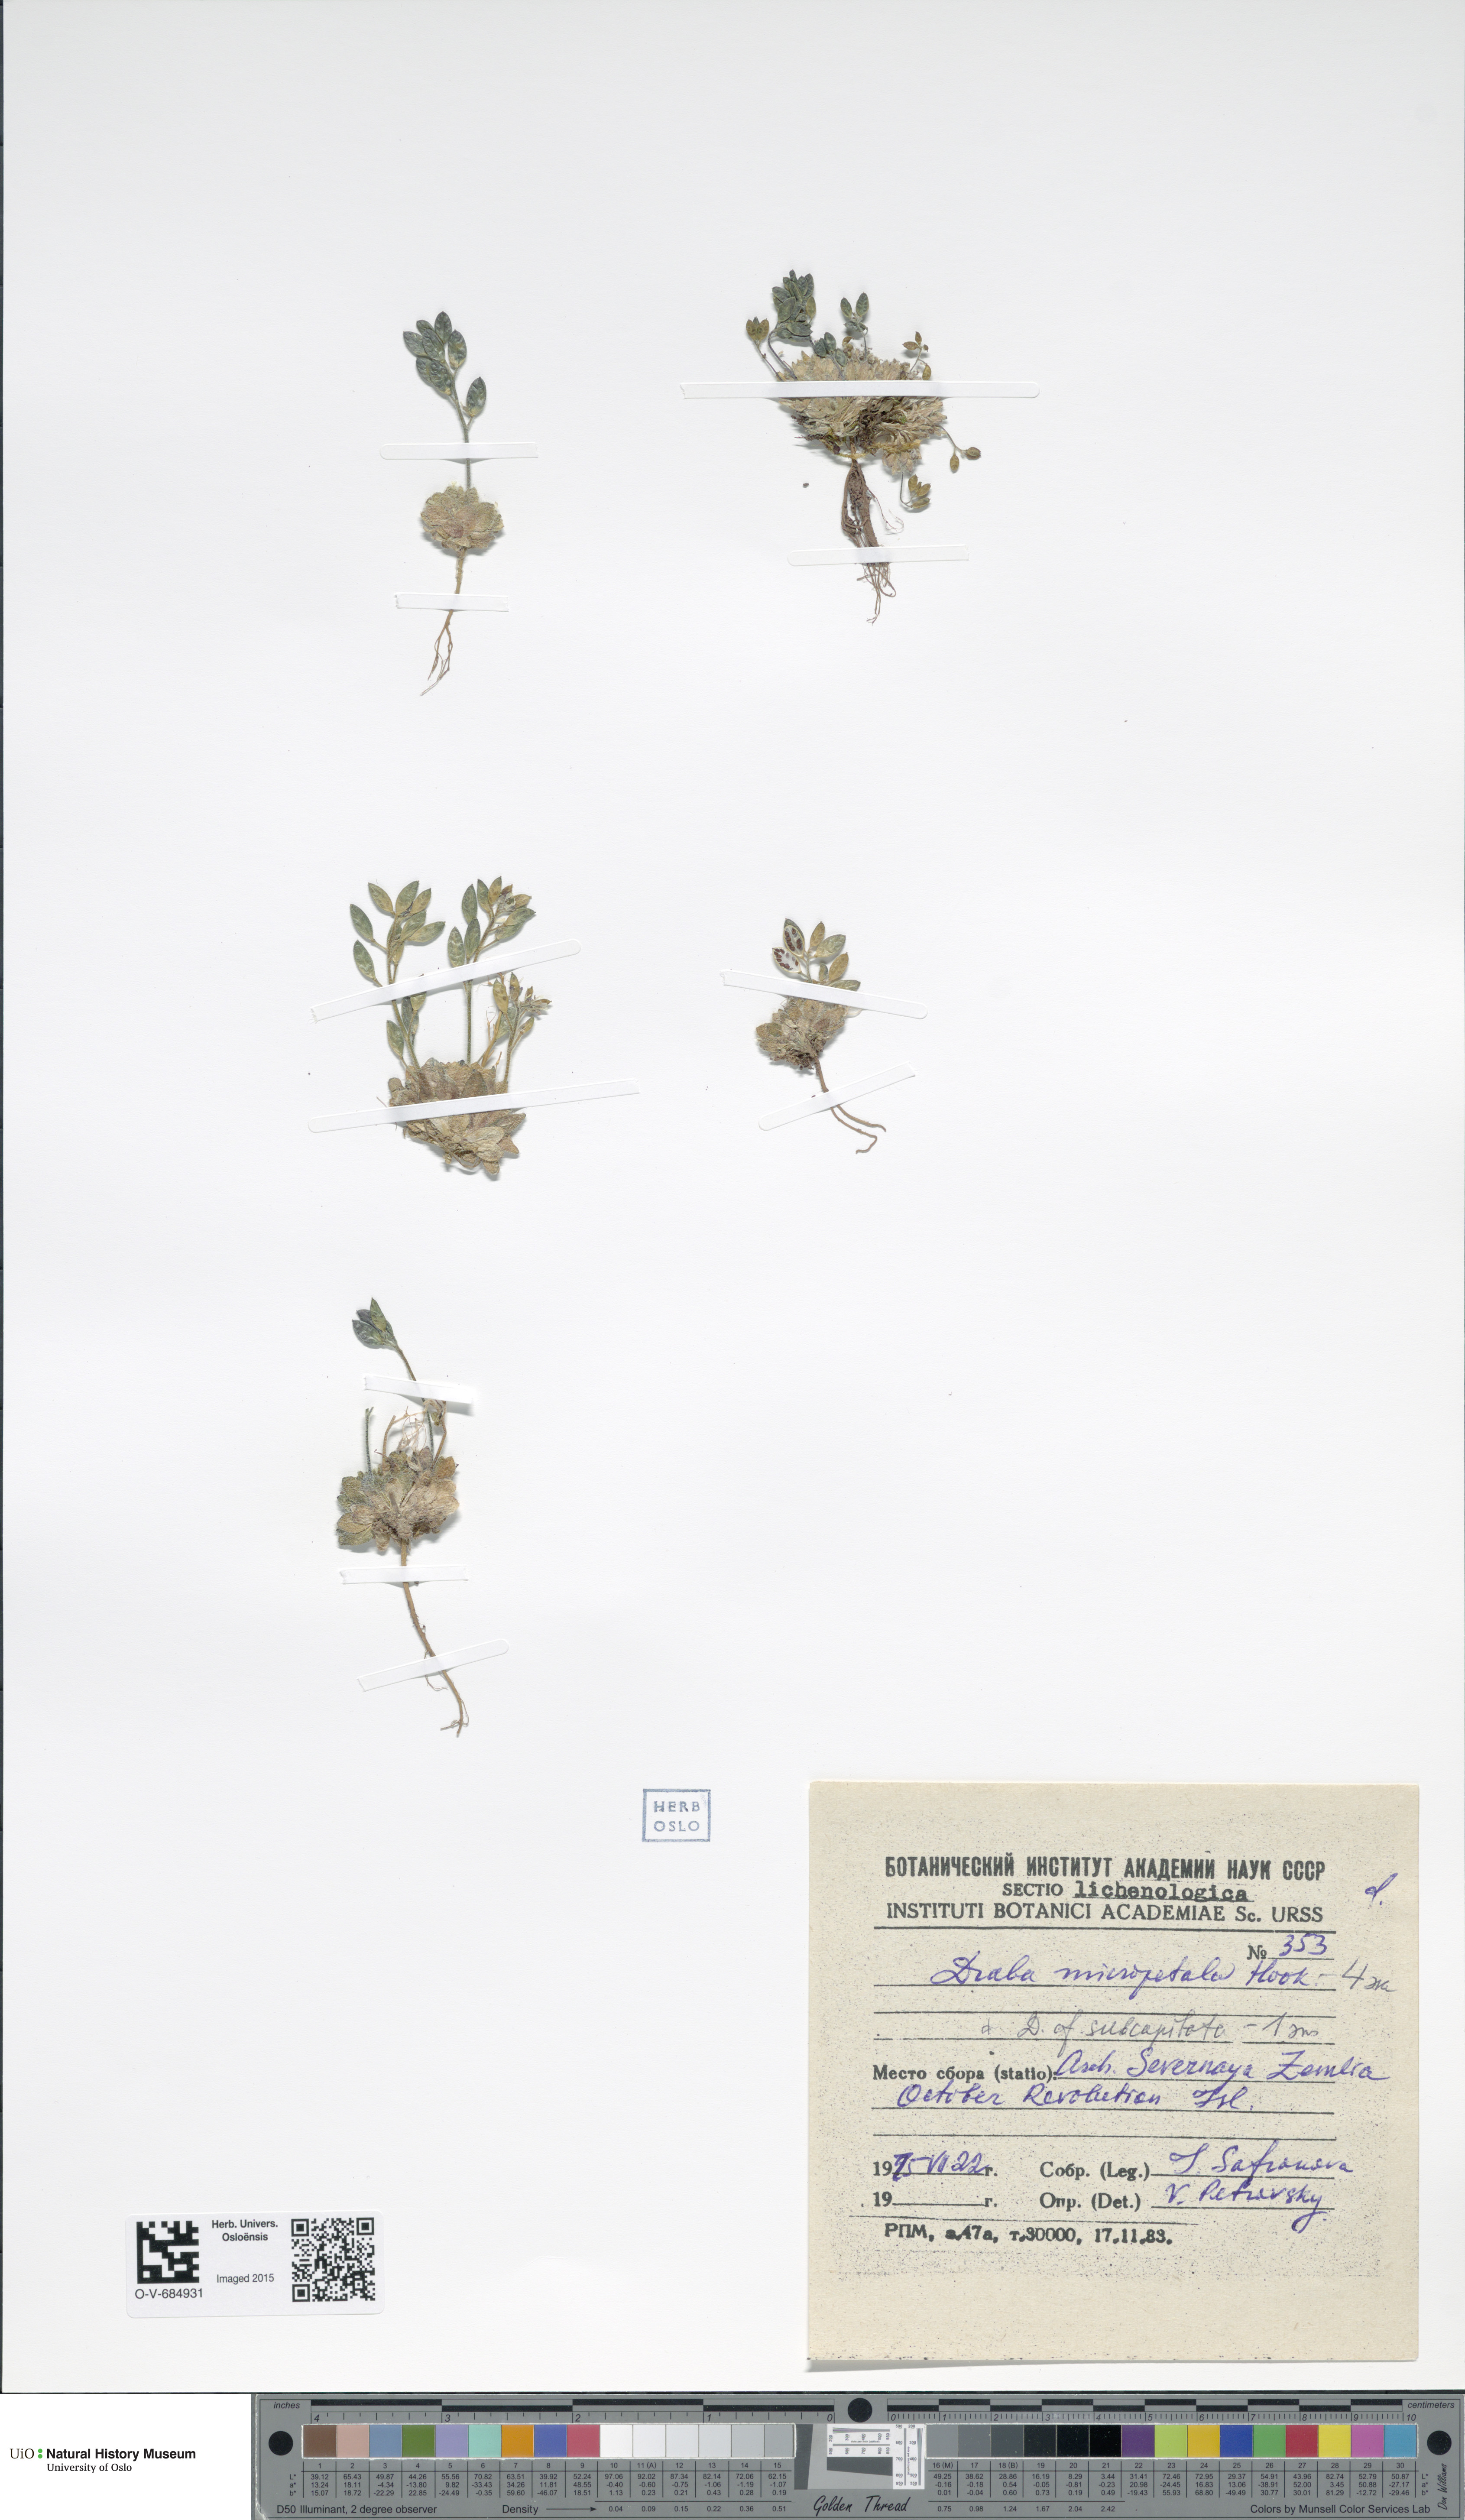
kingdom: Plantae
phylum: Tracheophyta
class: Magnoliopsida
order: Brassicales
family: Brassicaceae
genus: Draba
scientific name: Draba micropetala
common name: Small-flowered draba
